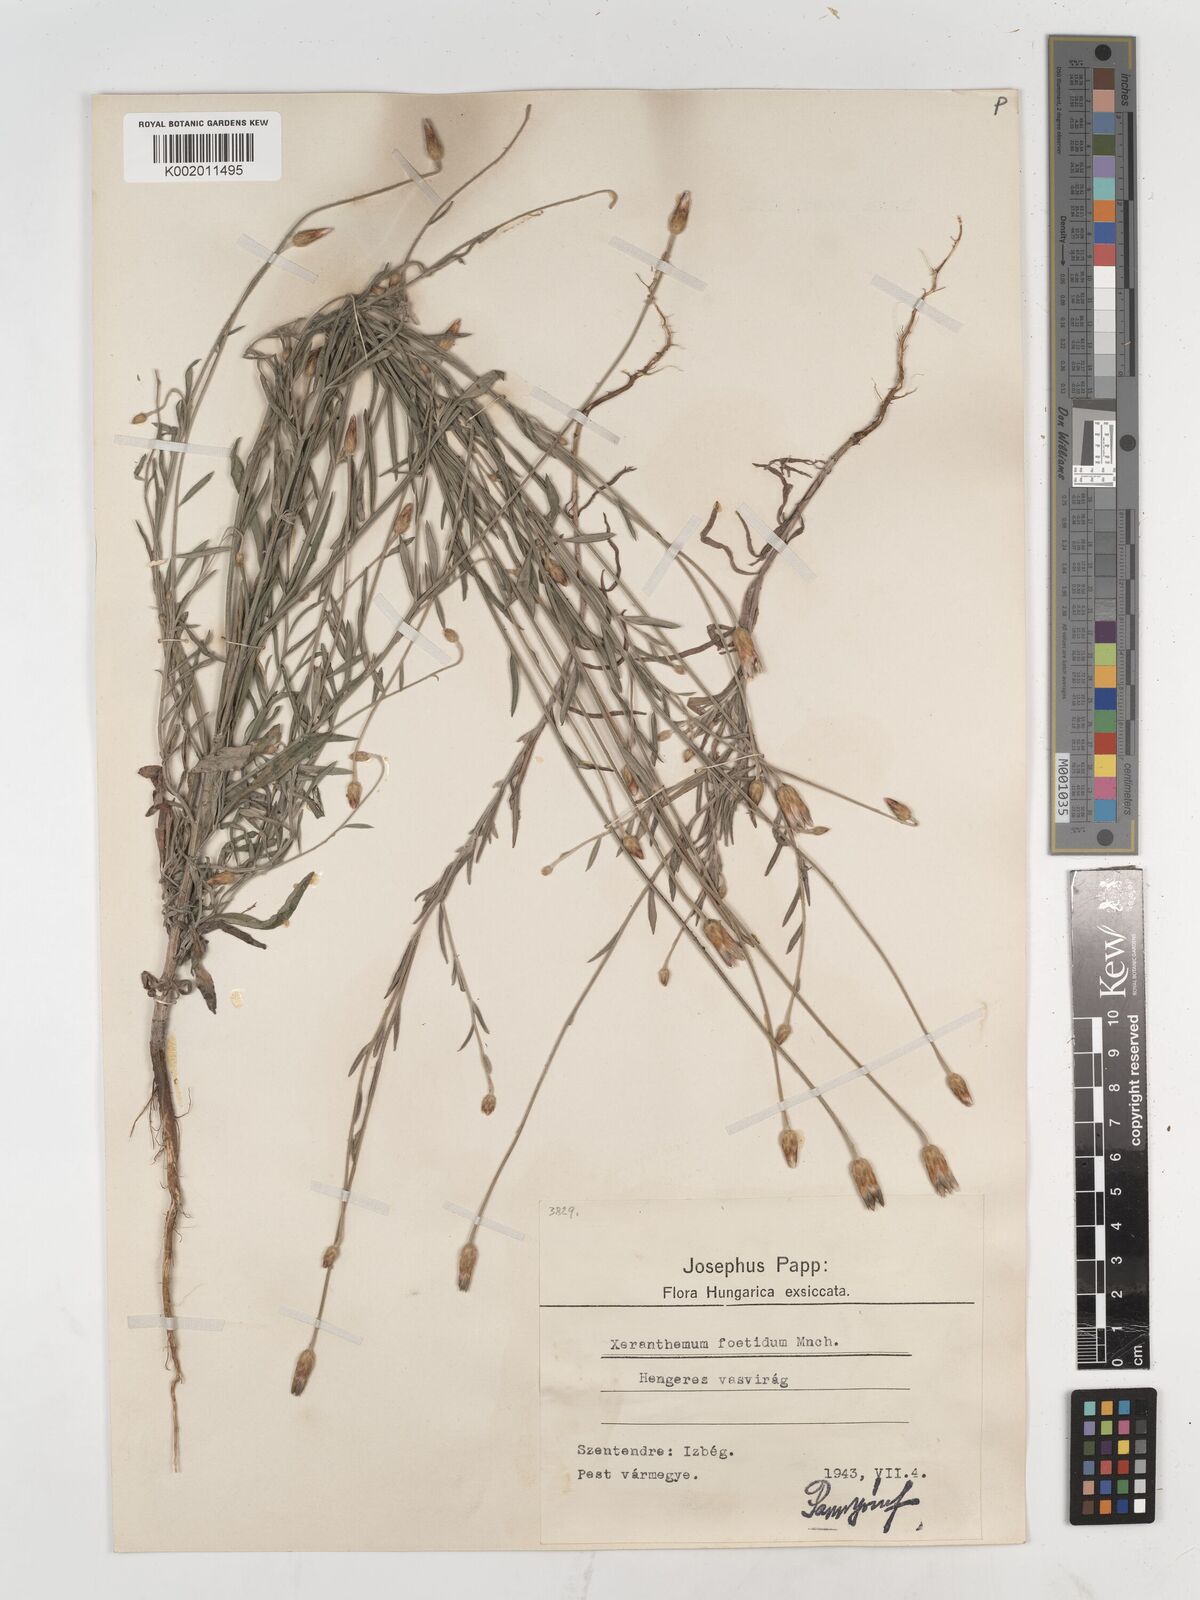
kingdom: Plantae
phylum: Tracheophyta
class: Magnoliopsida
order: Asterales
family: Asteraceae
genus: Xeranthemum
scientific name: Xeranthemum
